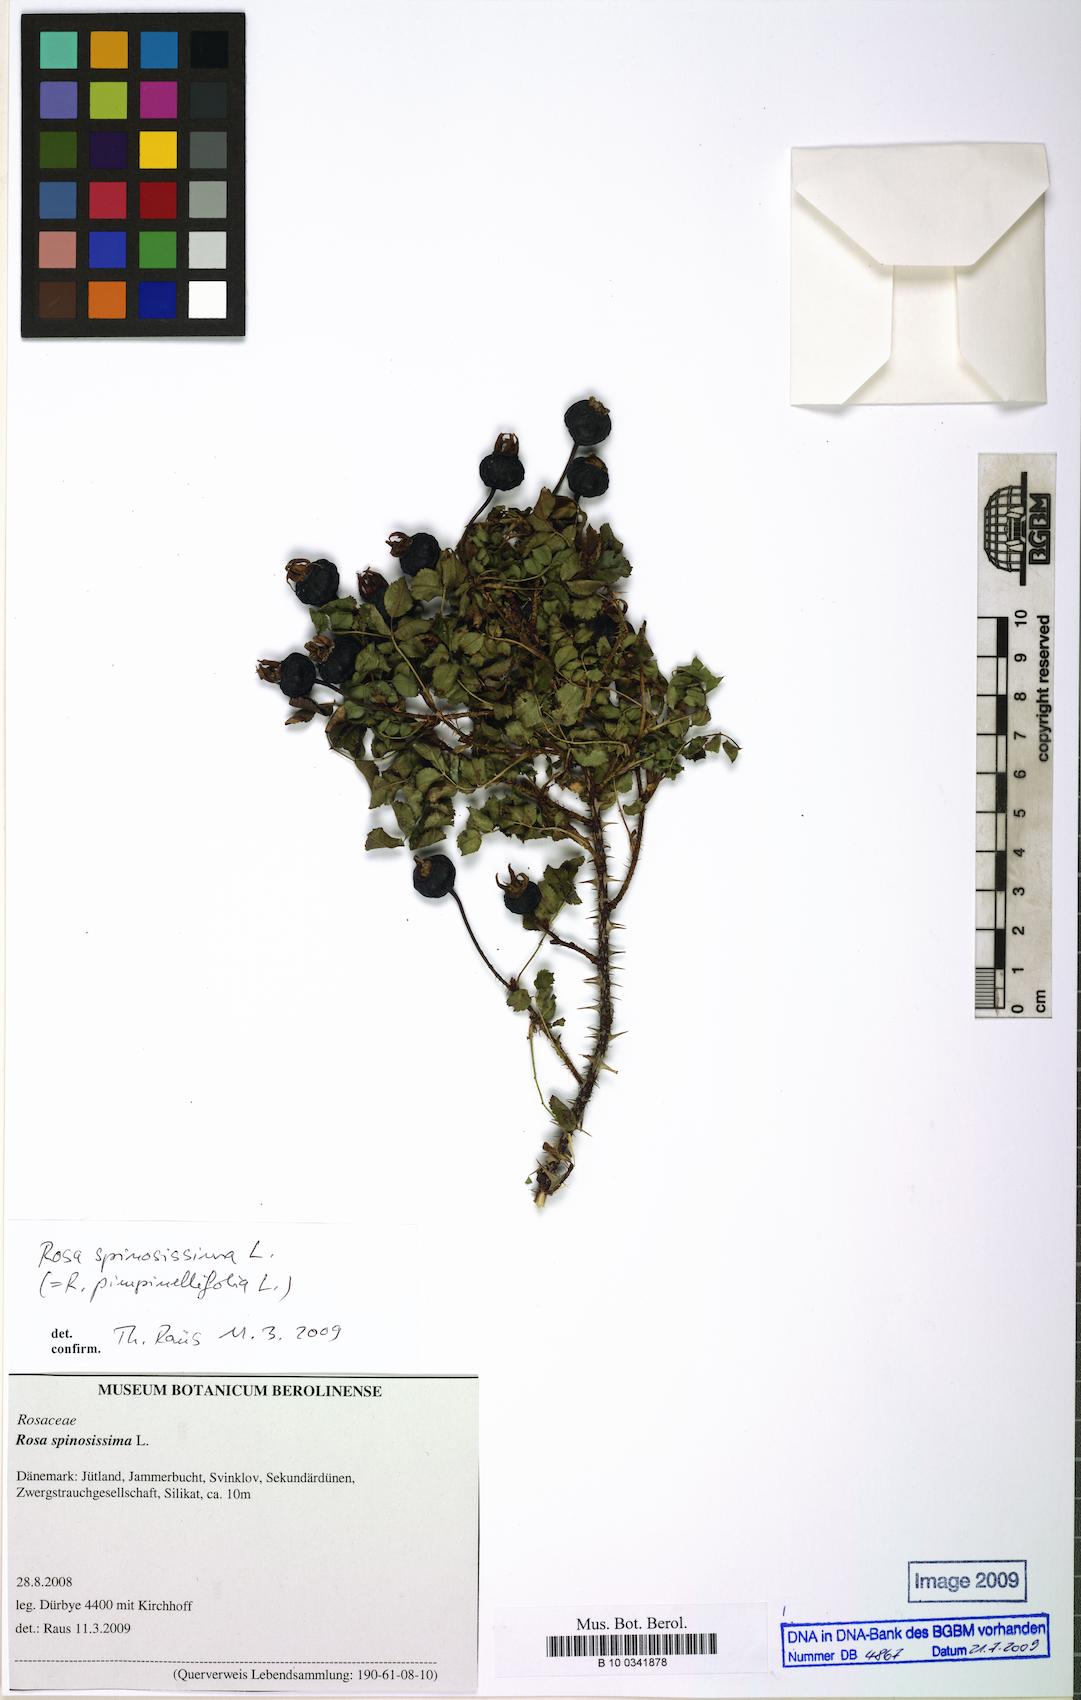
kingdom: Plantae
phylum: Tracheophyta
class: Magnoliopsida
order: Rosales
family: Rosaceae
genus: Rosa
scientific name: Rosa spinosissima
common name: Burnet rose
